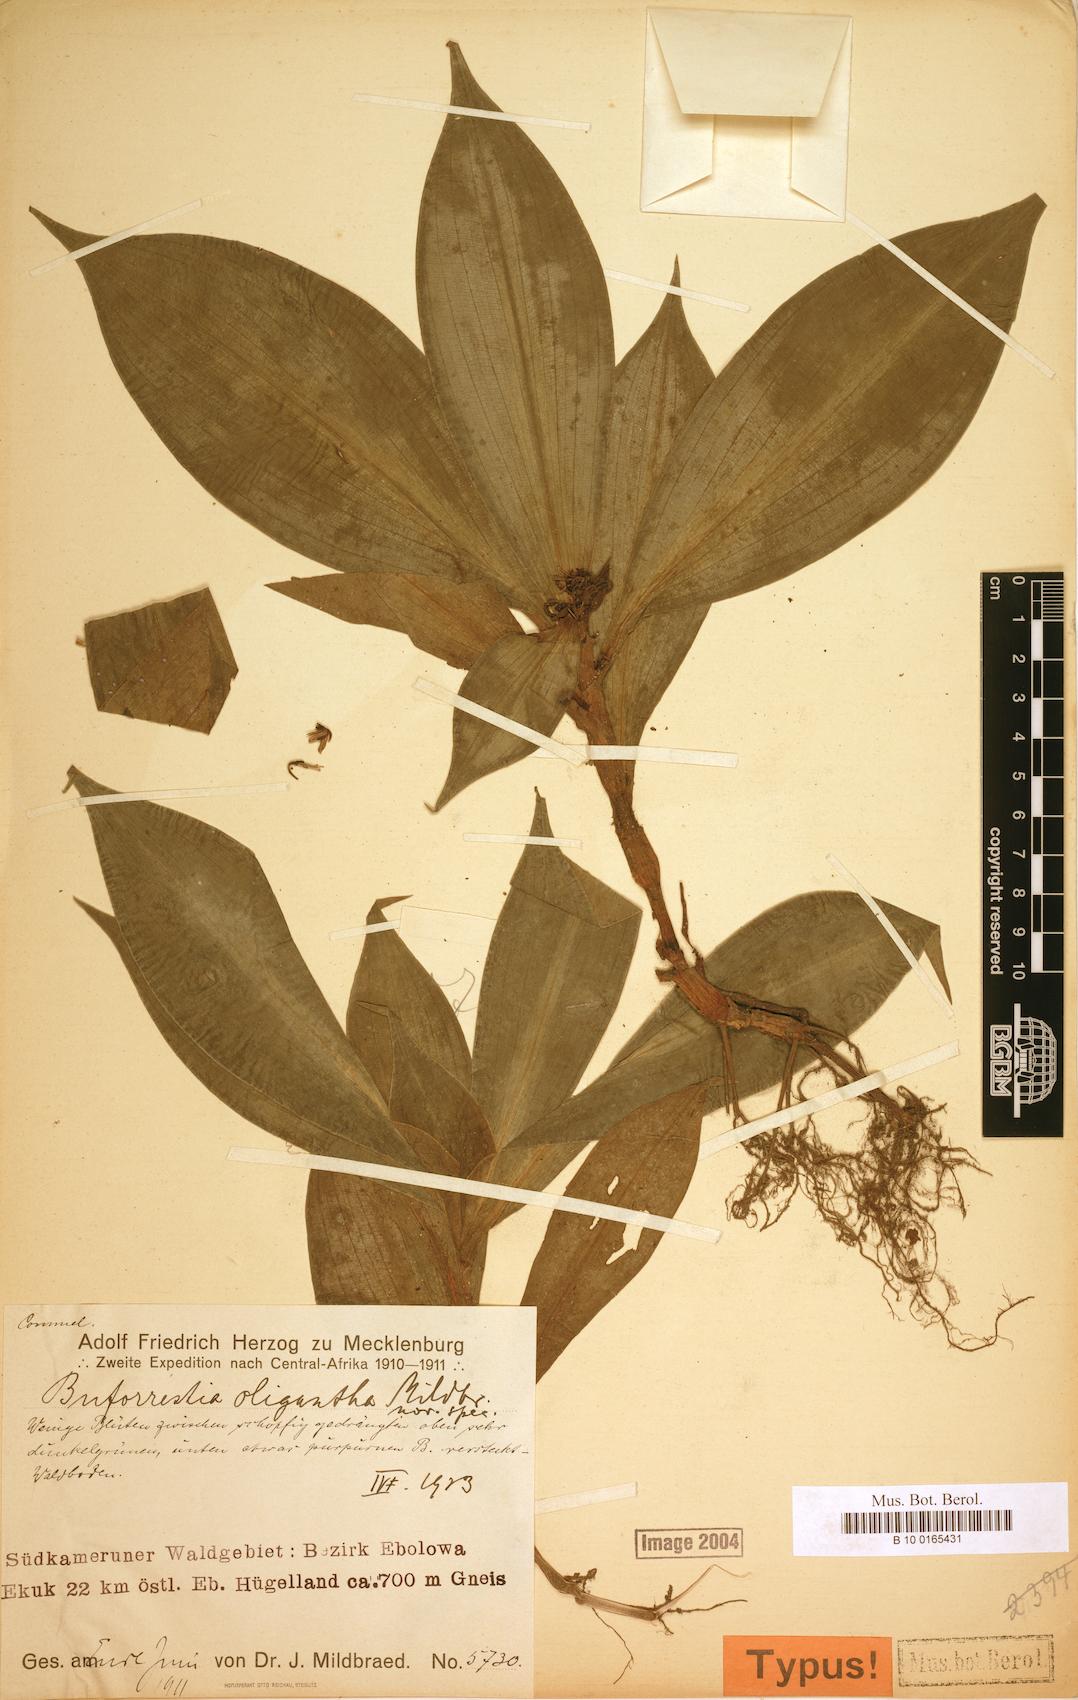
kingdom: Plantae
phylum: Tracheophyta
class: Liliopsida
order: Commelinales
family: Commelinaceae
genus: Stanfieldiella
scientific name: Stanfieldiella oligantha
